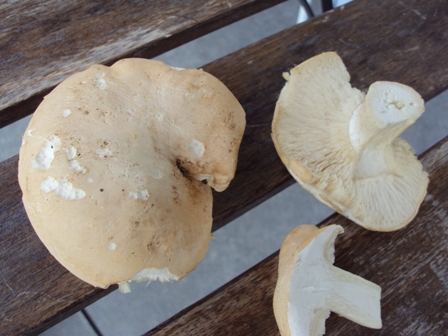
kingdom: Fungi
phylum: Basidiomycota
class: Agaricomycetes
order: Agaricales
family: Lyophyllaceae
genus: Calocybe
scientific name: Calocybe gambosa
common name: vårmusseron
